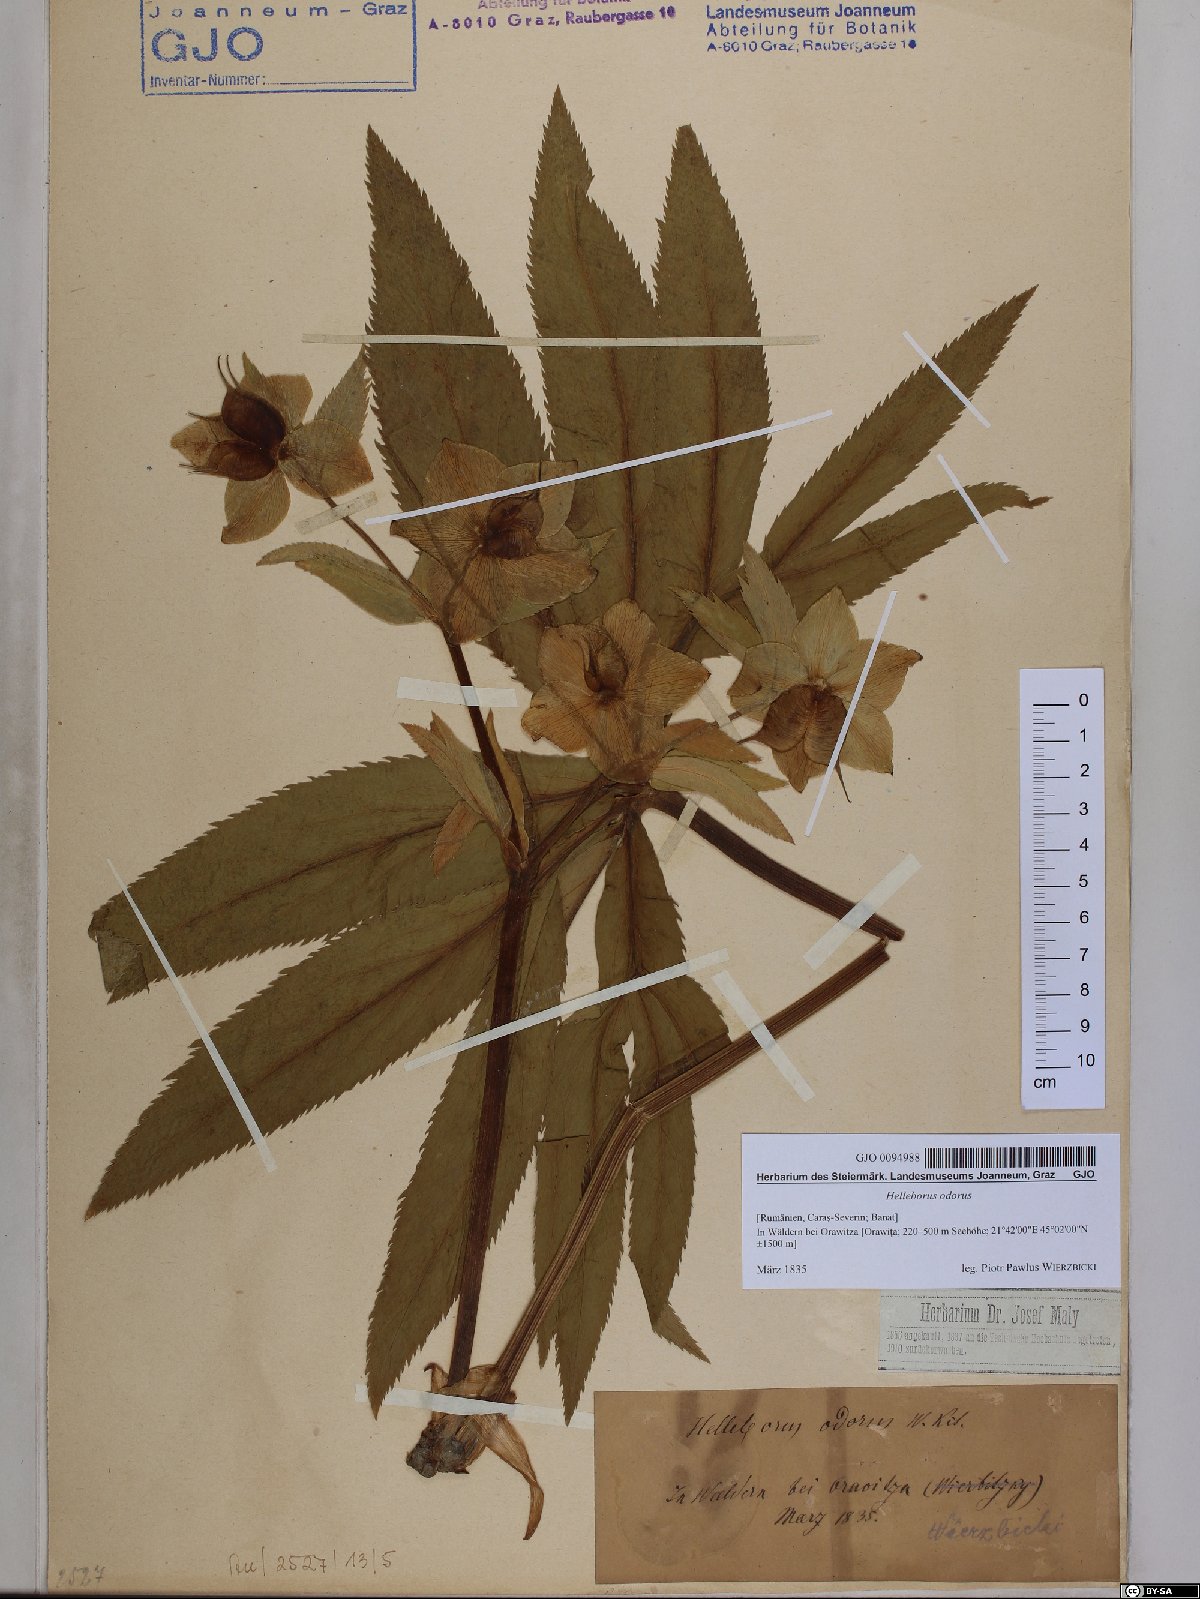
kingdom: Plantae
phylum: Tracheophyta
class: Magnoliopsida
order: Ranunculales
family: Ranunculaceae
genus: Helleborus
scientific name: Helleborus odorus
